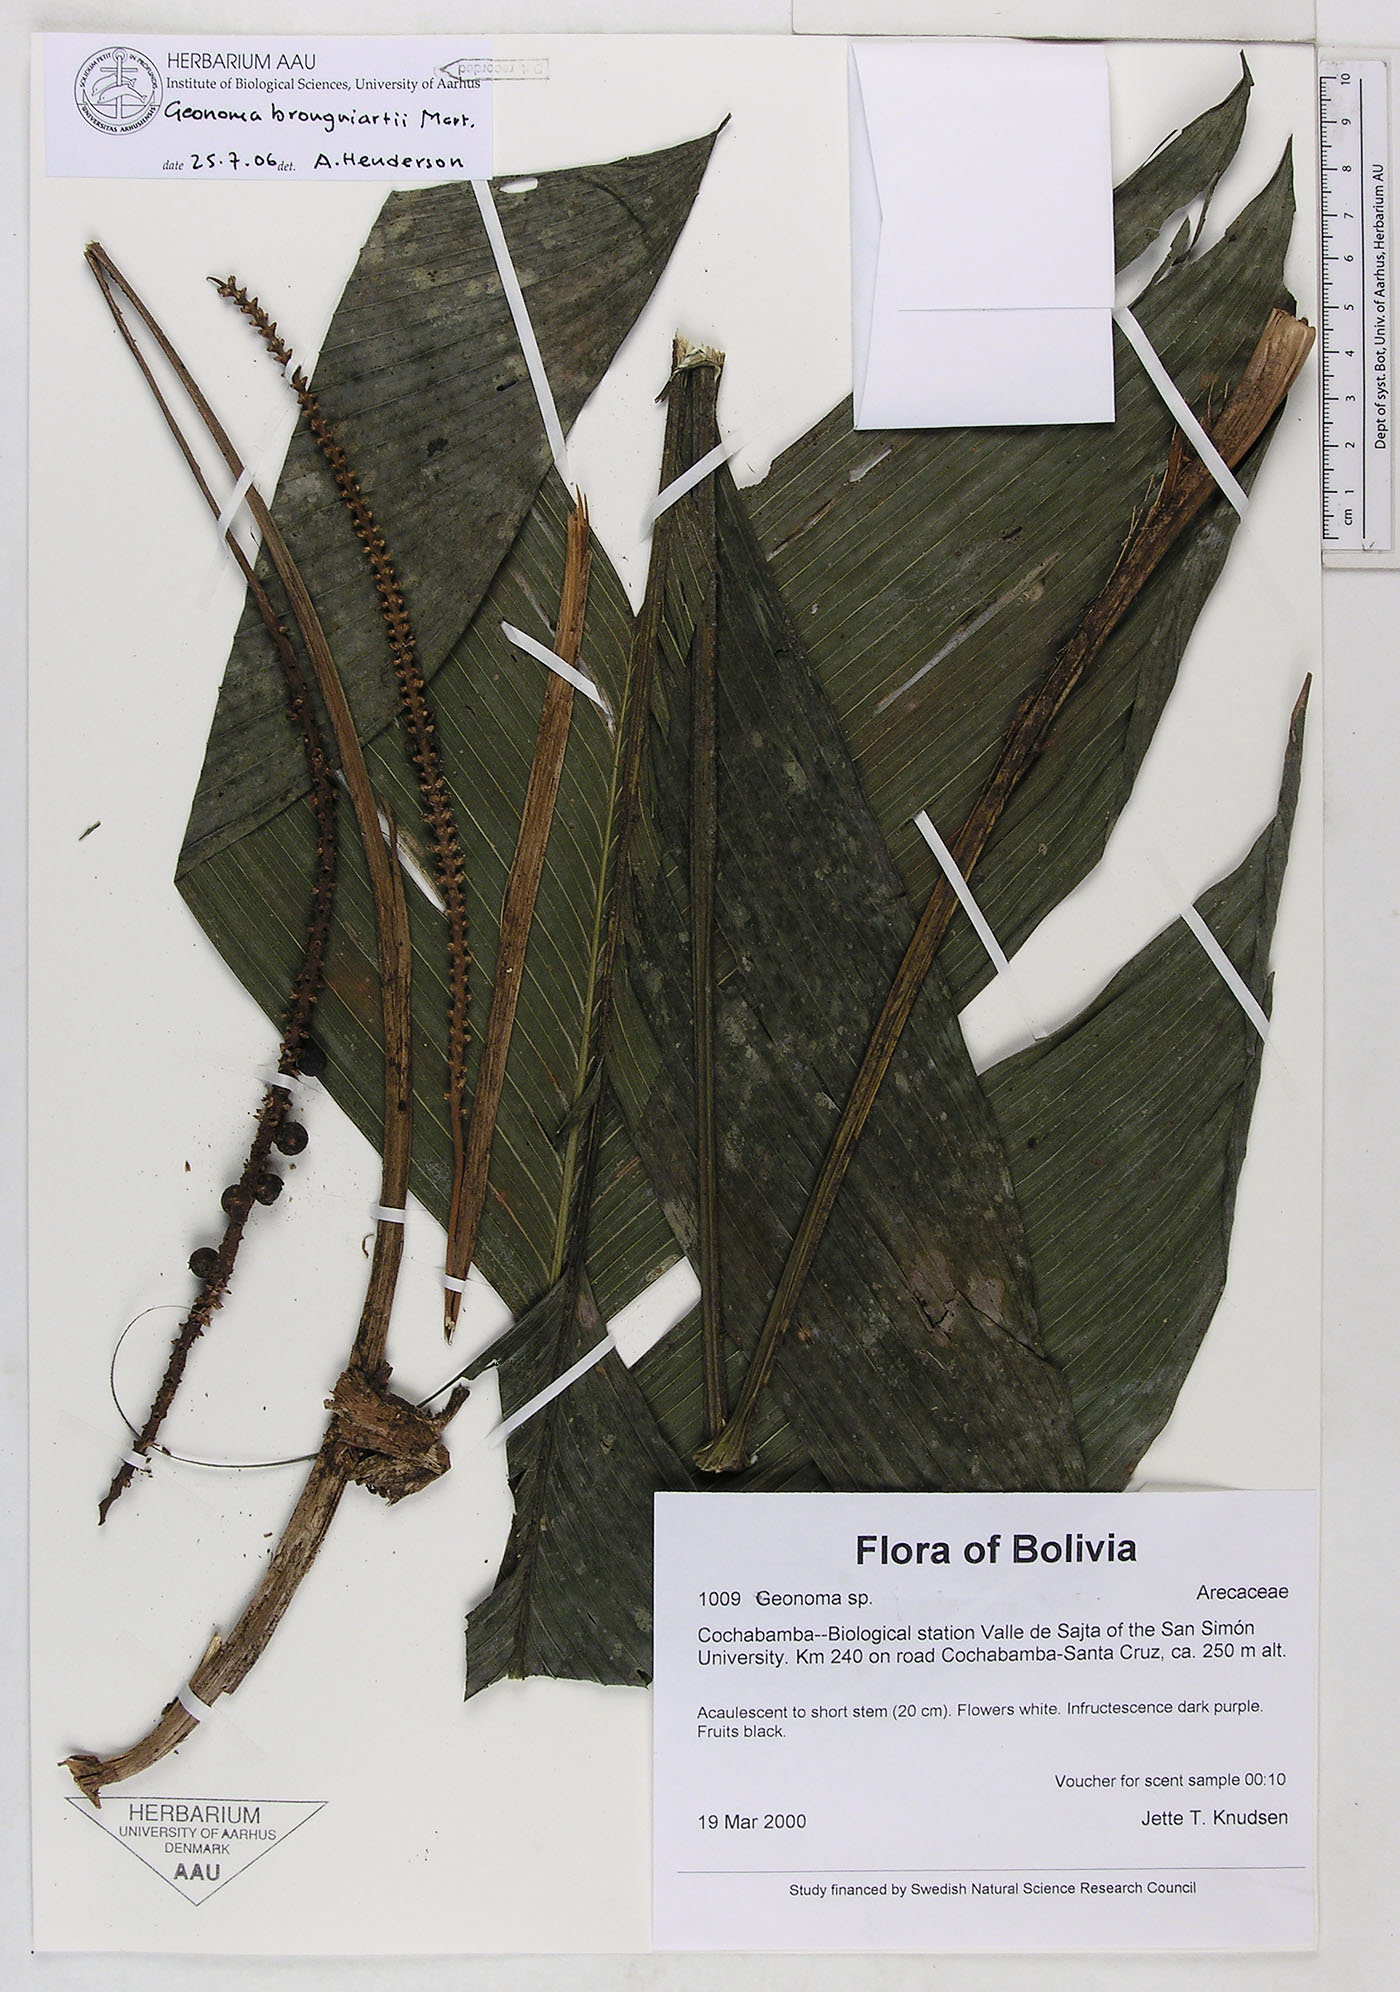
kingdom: Plantae
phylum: Tracheophyta
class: Liliopsida
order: Arecales
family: Arecaceae
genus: Geonoma
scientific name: Geonoma brongniartii
